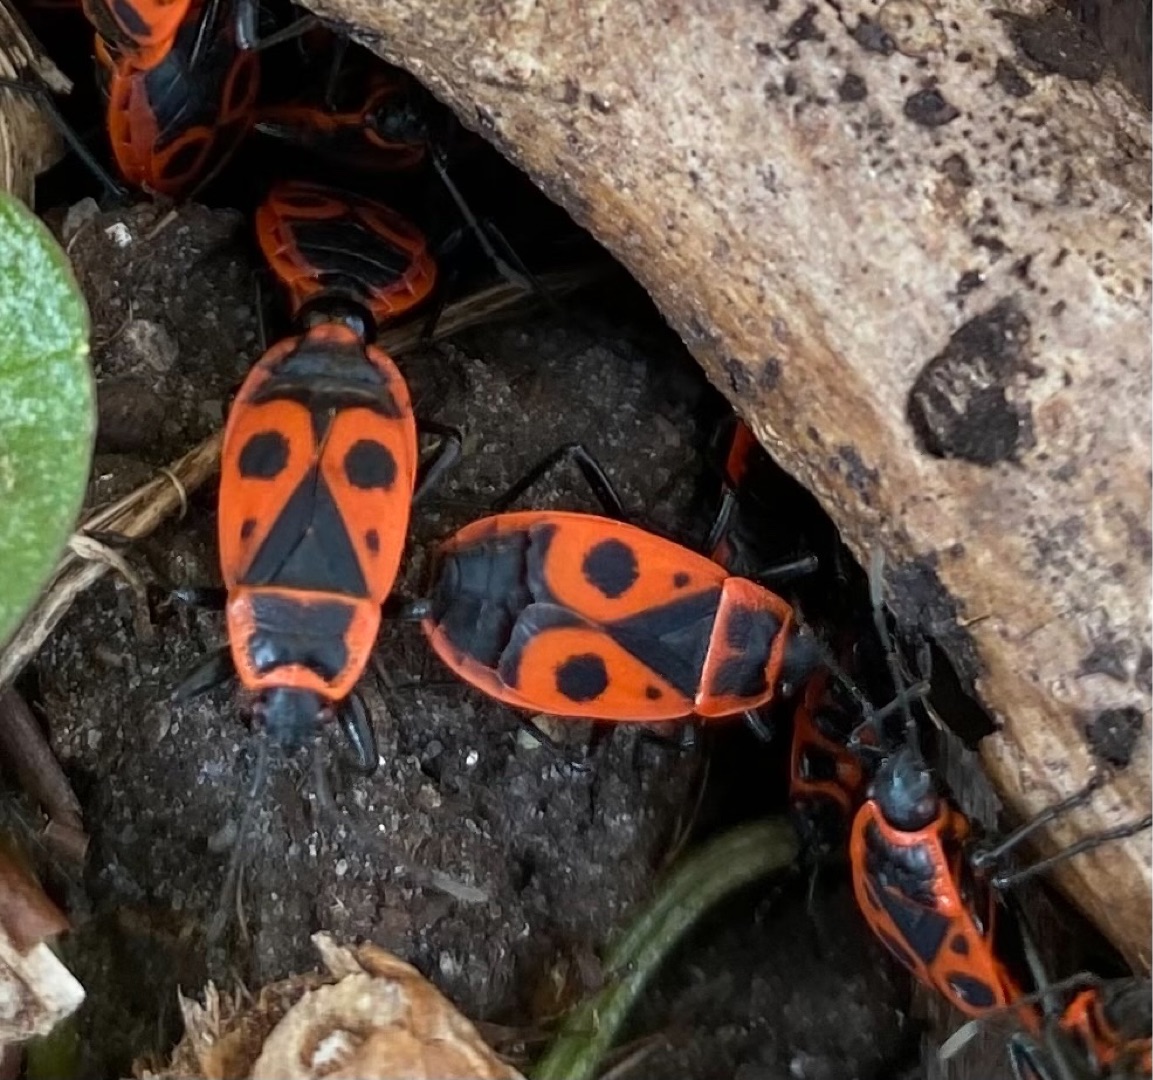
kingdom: Animalia
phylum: Arthropoda
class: Insecta
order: Hemiptera
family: Pyrrhocoridae
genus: Pyrrhocoris
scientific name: Pyrrhocoris apterus
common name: Ildtæge
